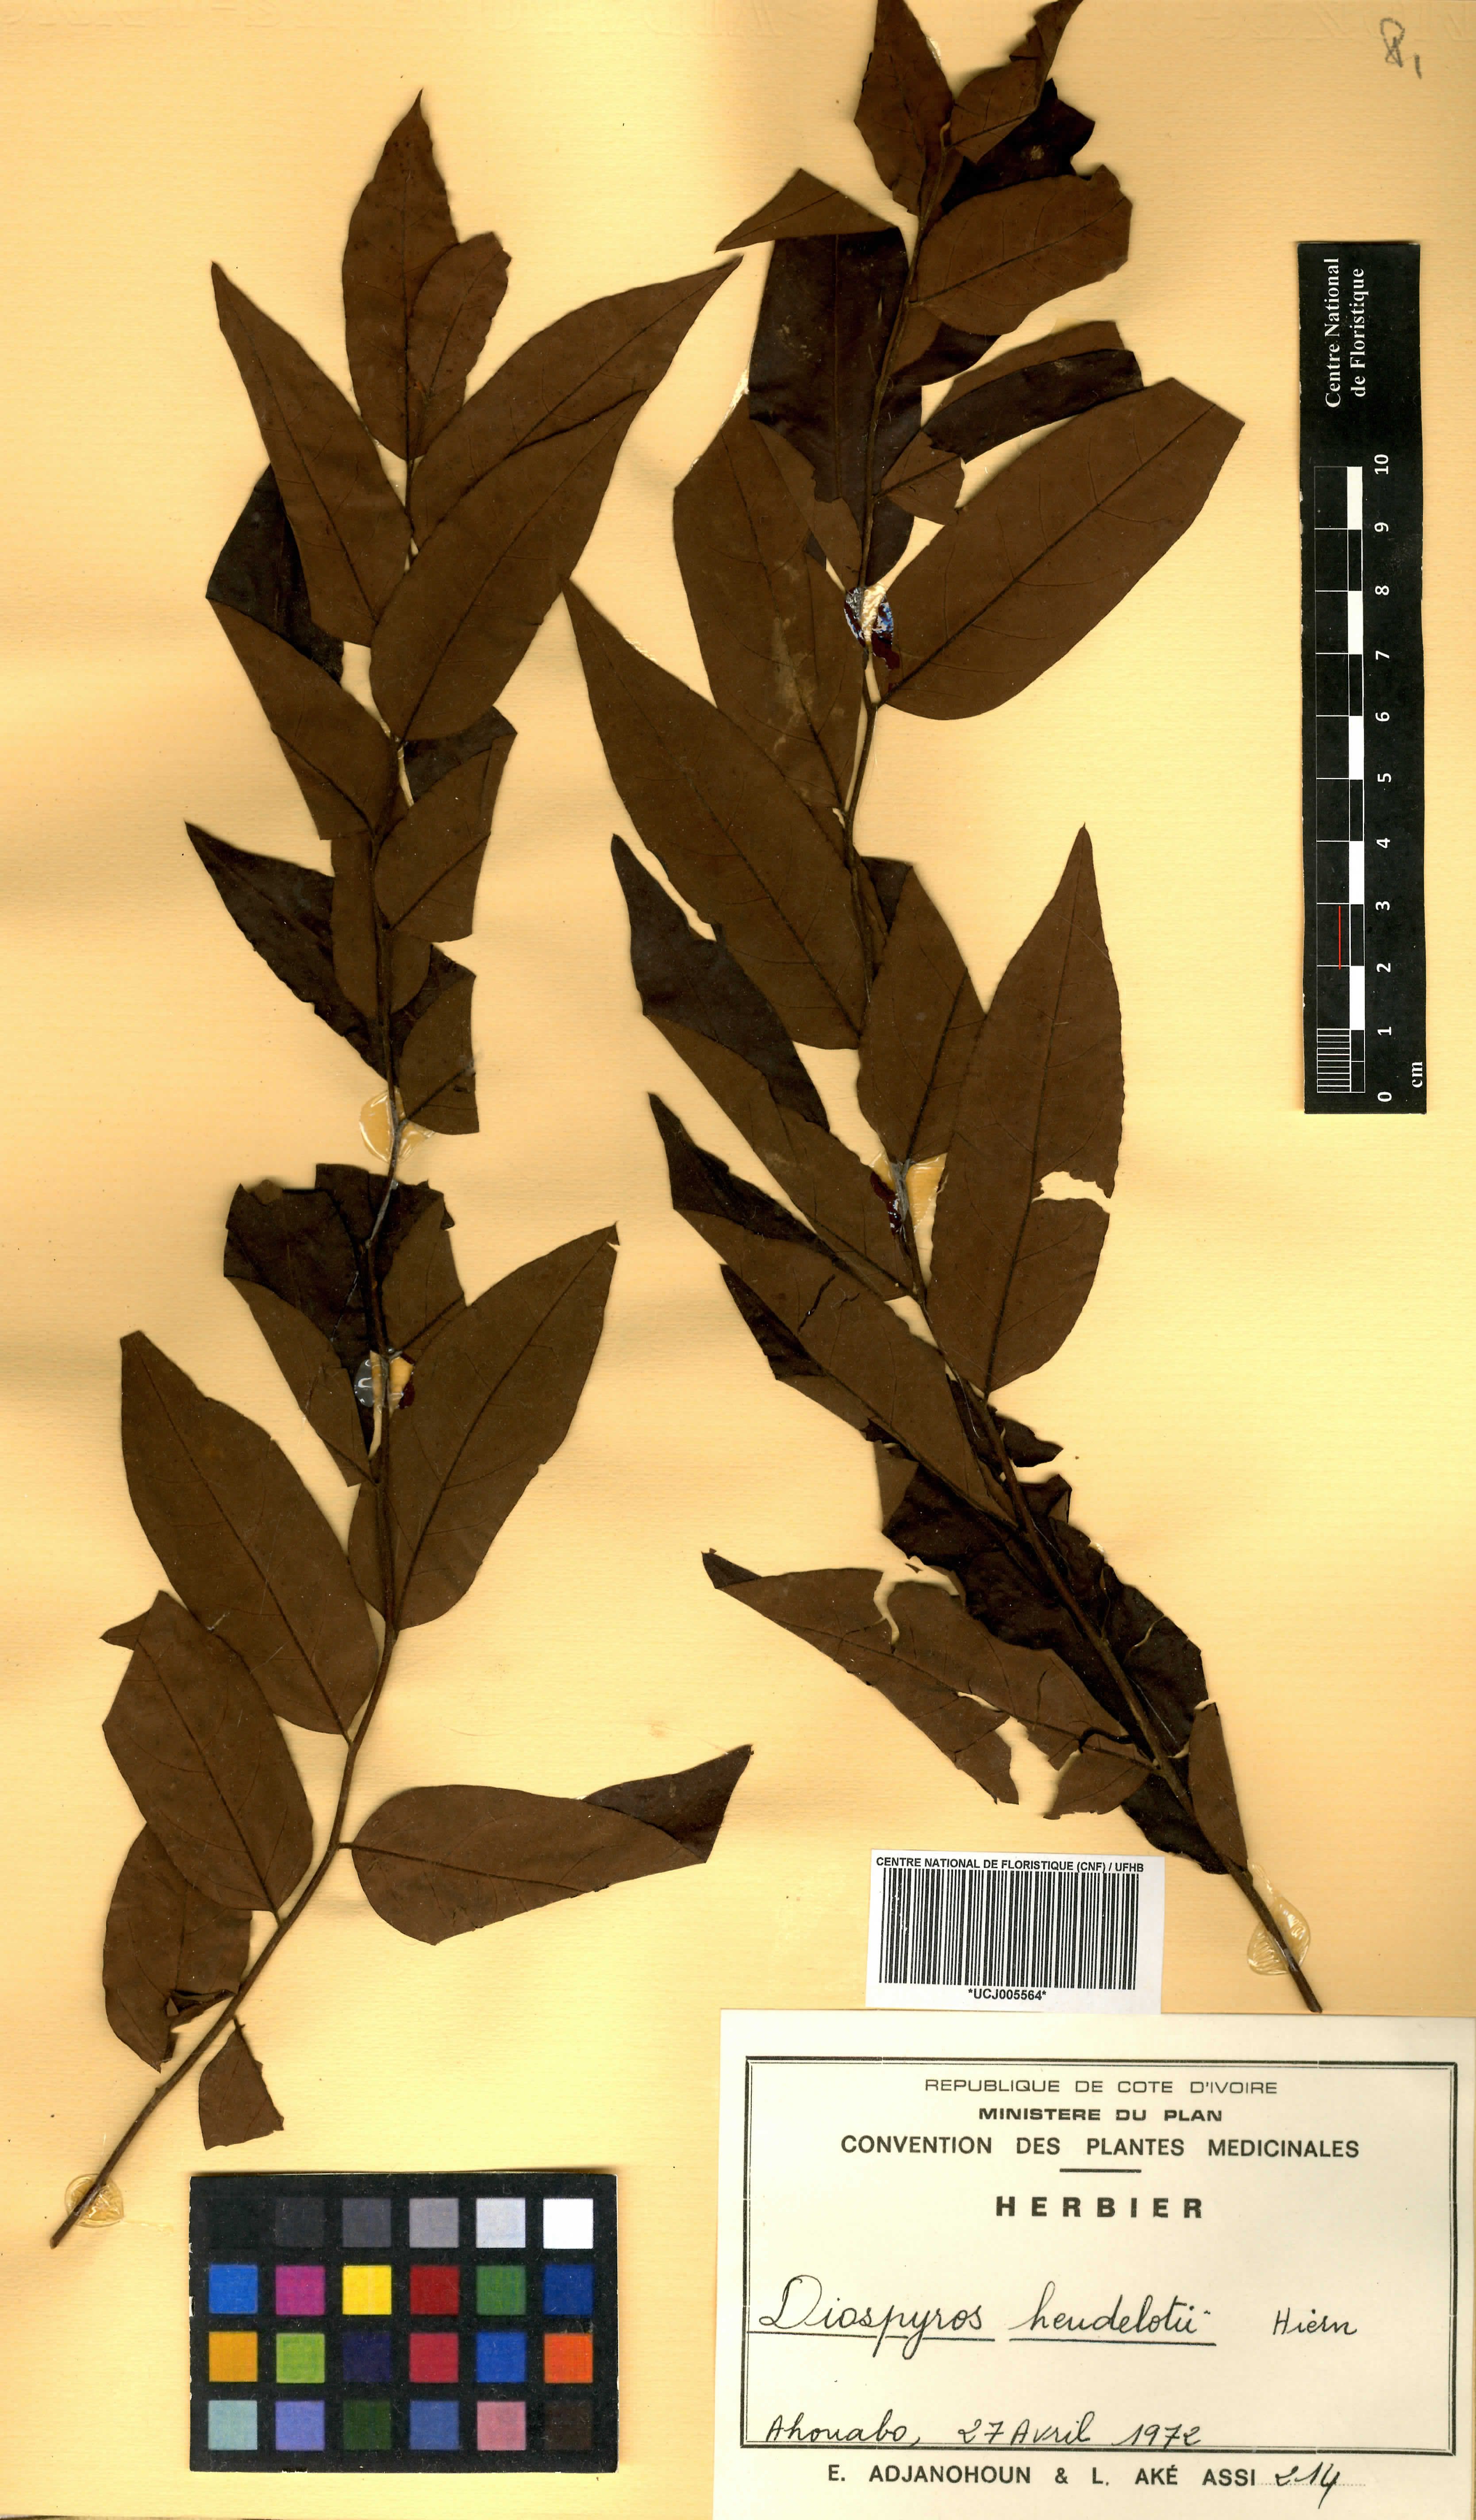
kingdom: Plantae
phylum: Tracheophyta
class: Magnoliopsida
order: Ericales
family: Ebenaceae
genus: Diospyros
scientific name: Diospyros heudelotii
